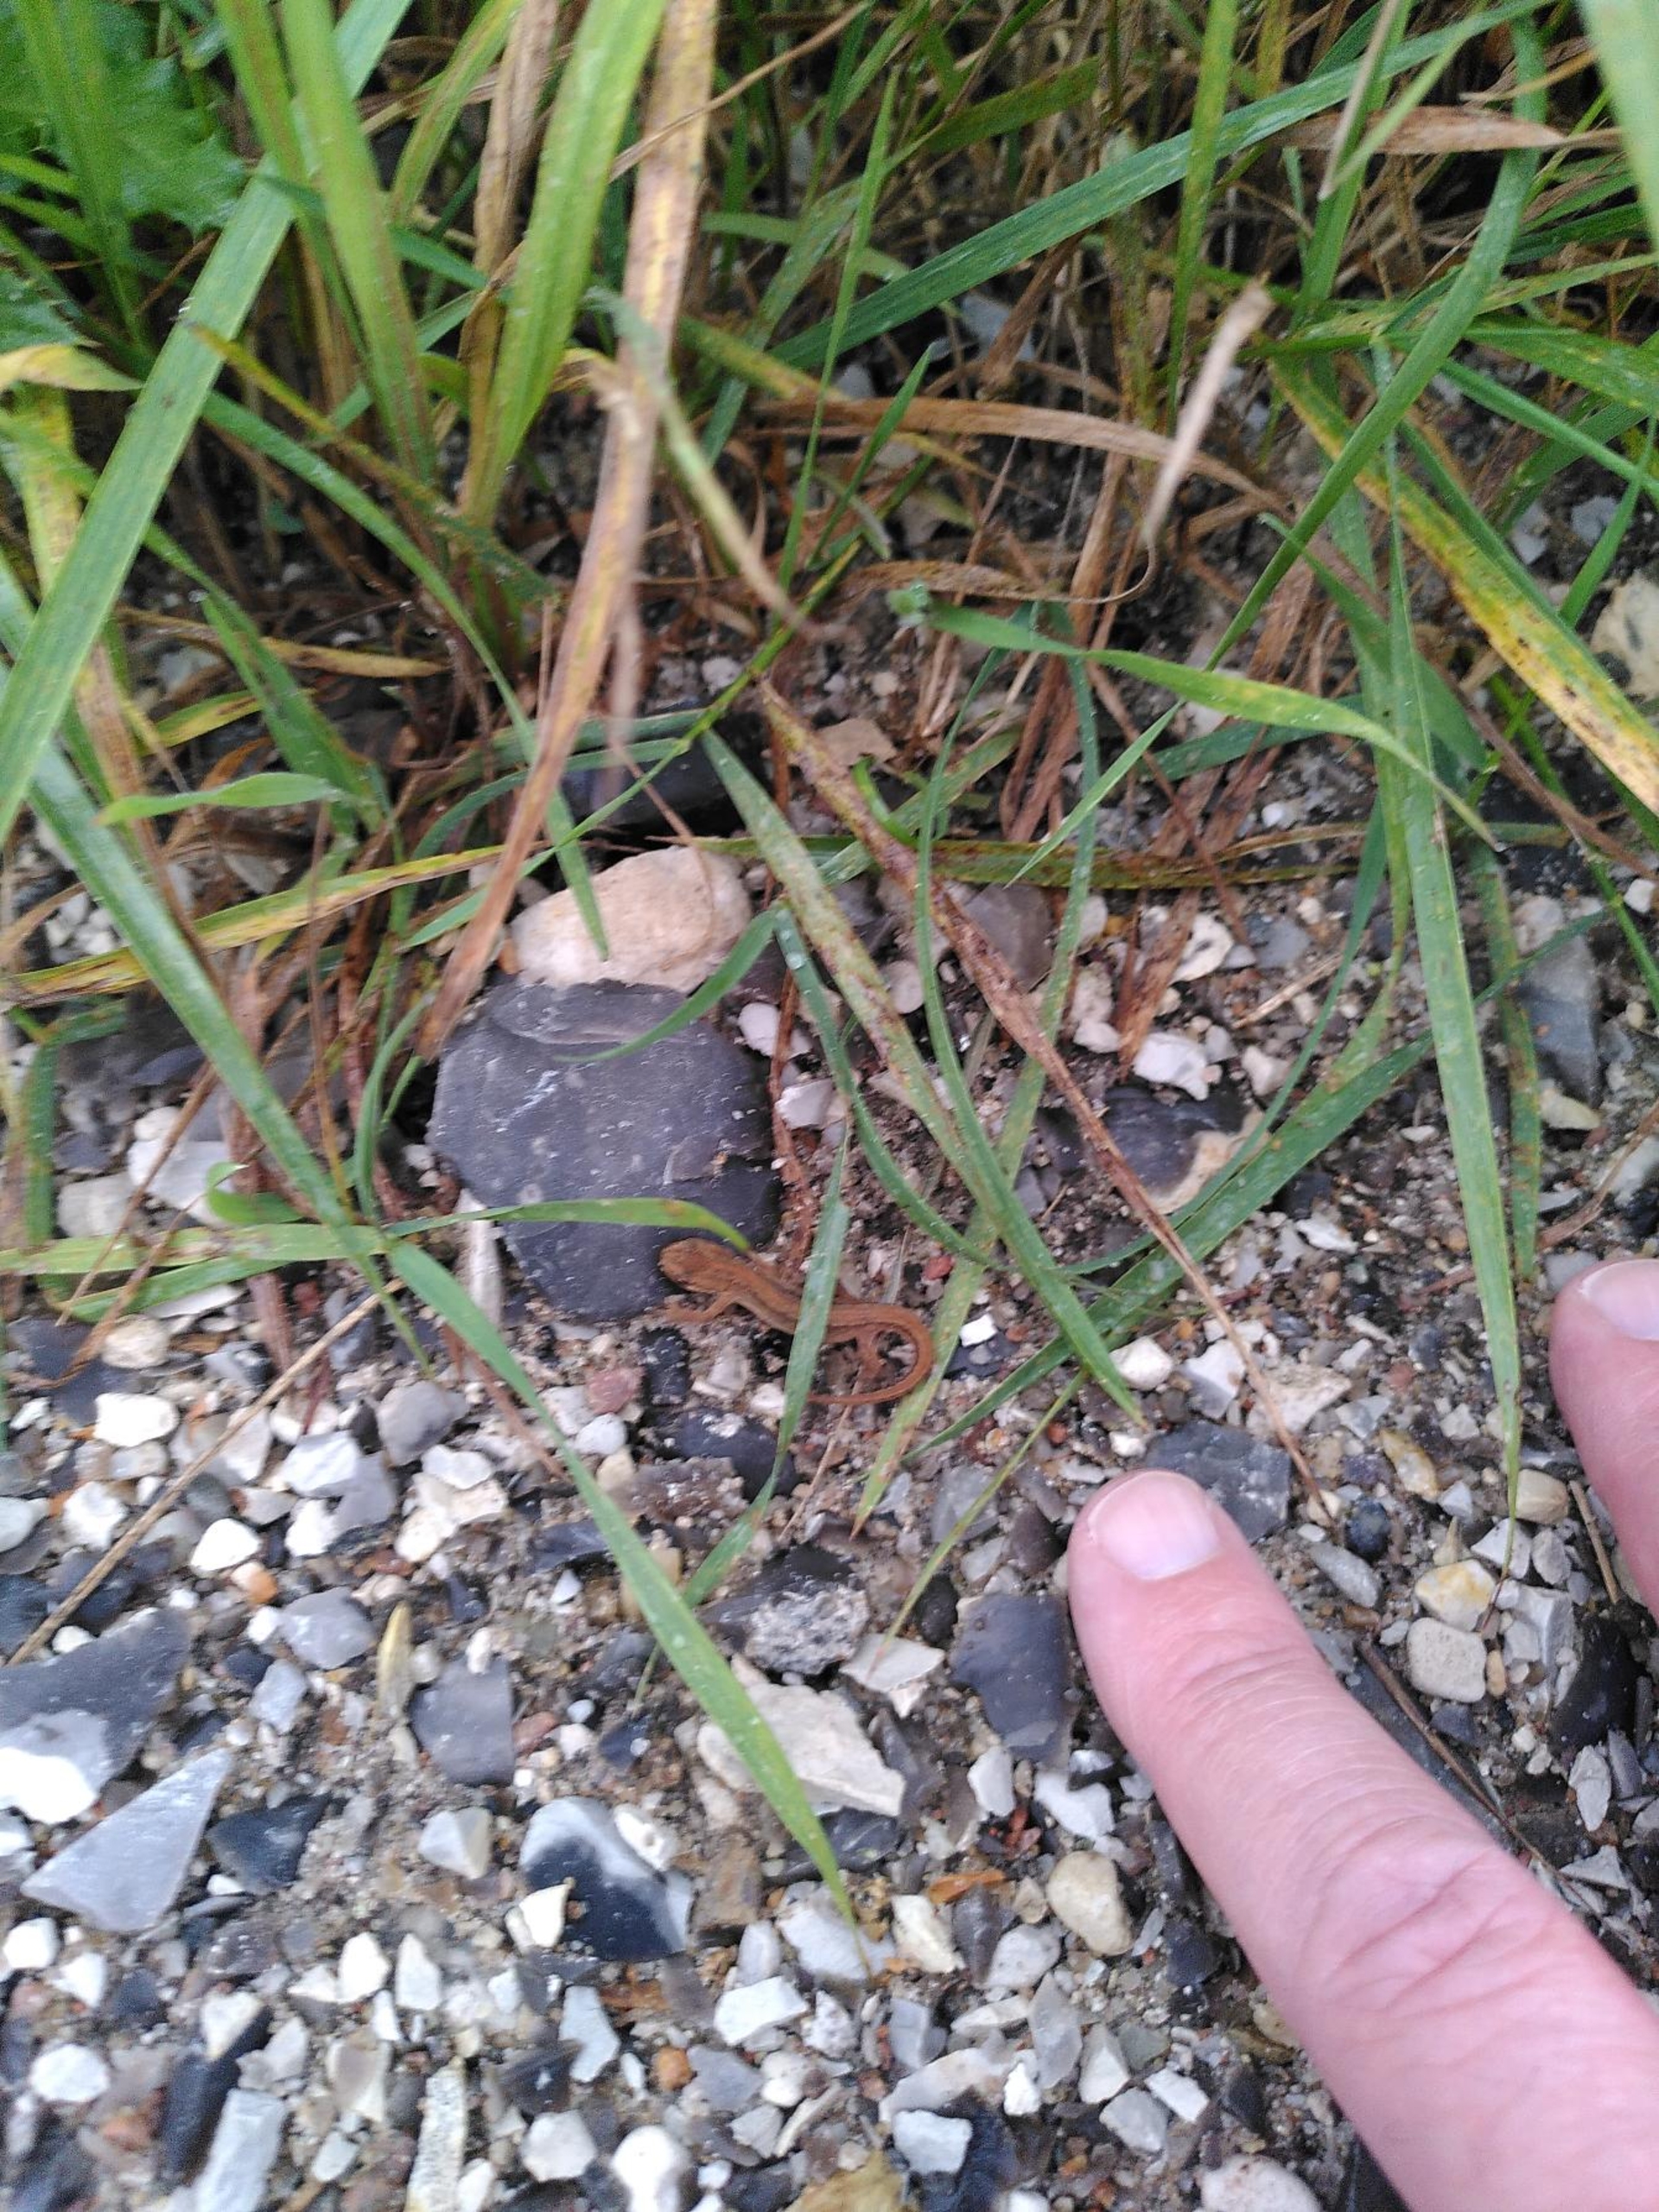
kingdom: Animalia
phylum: Chordata
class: Amphibia
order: Caudata
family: Salamandridae
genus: Lissotriton
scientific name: Lissotriton vulgaris
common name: Lille vandsalamander
